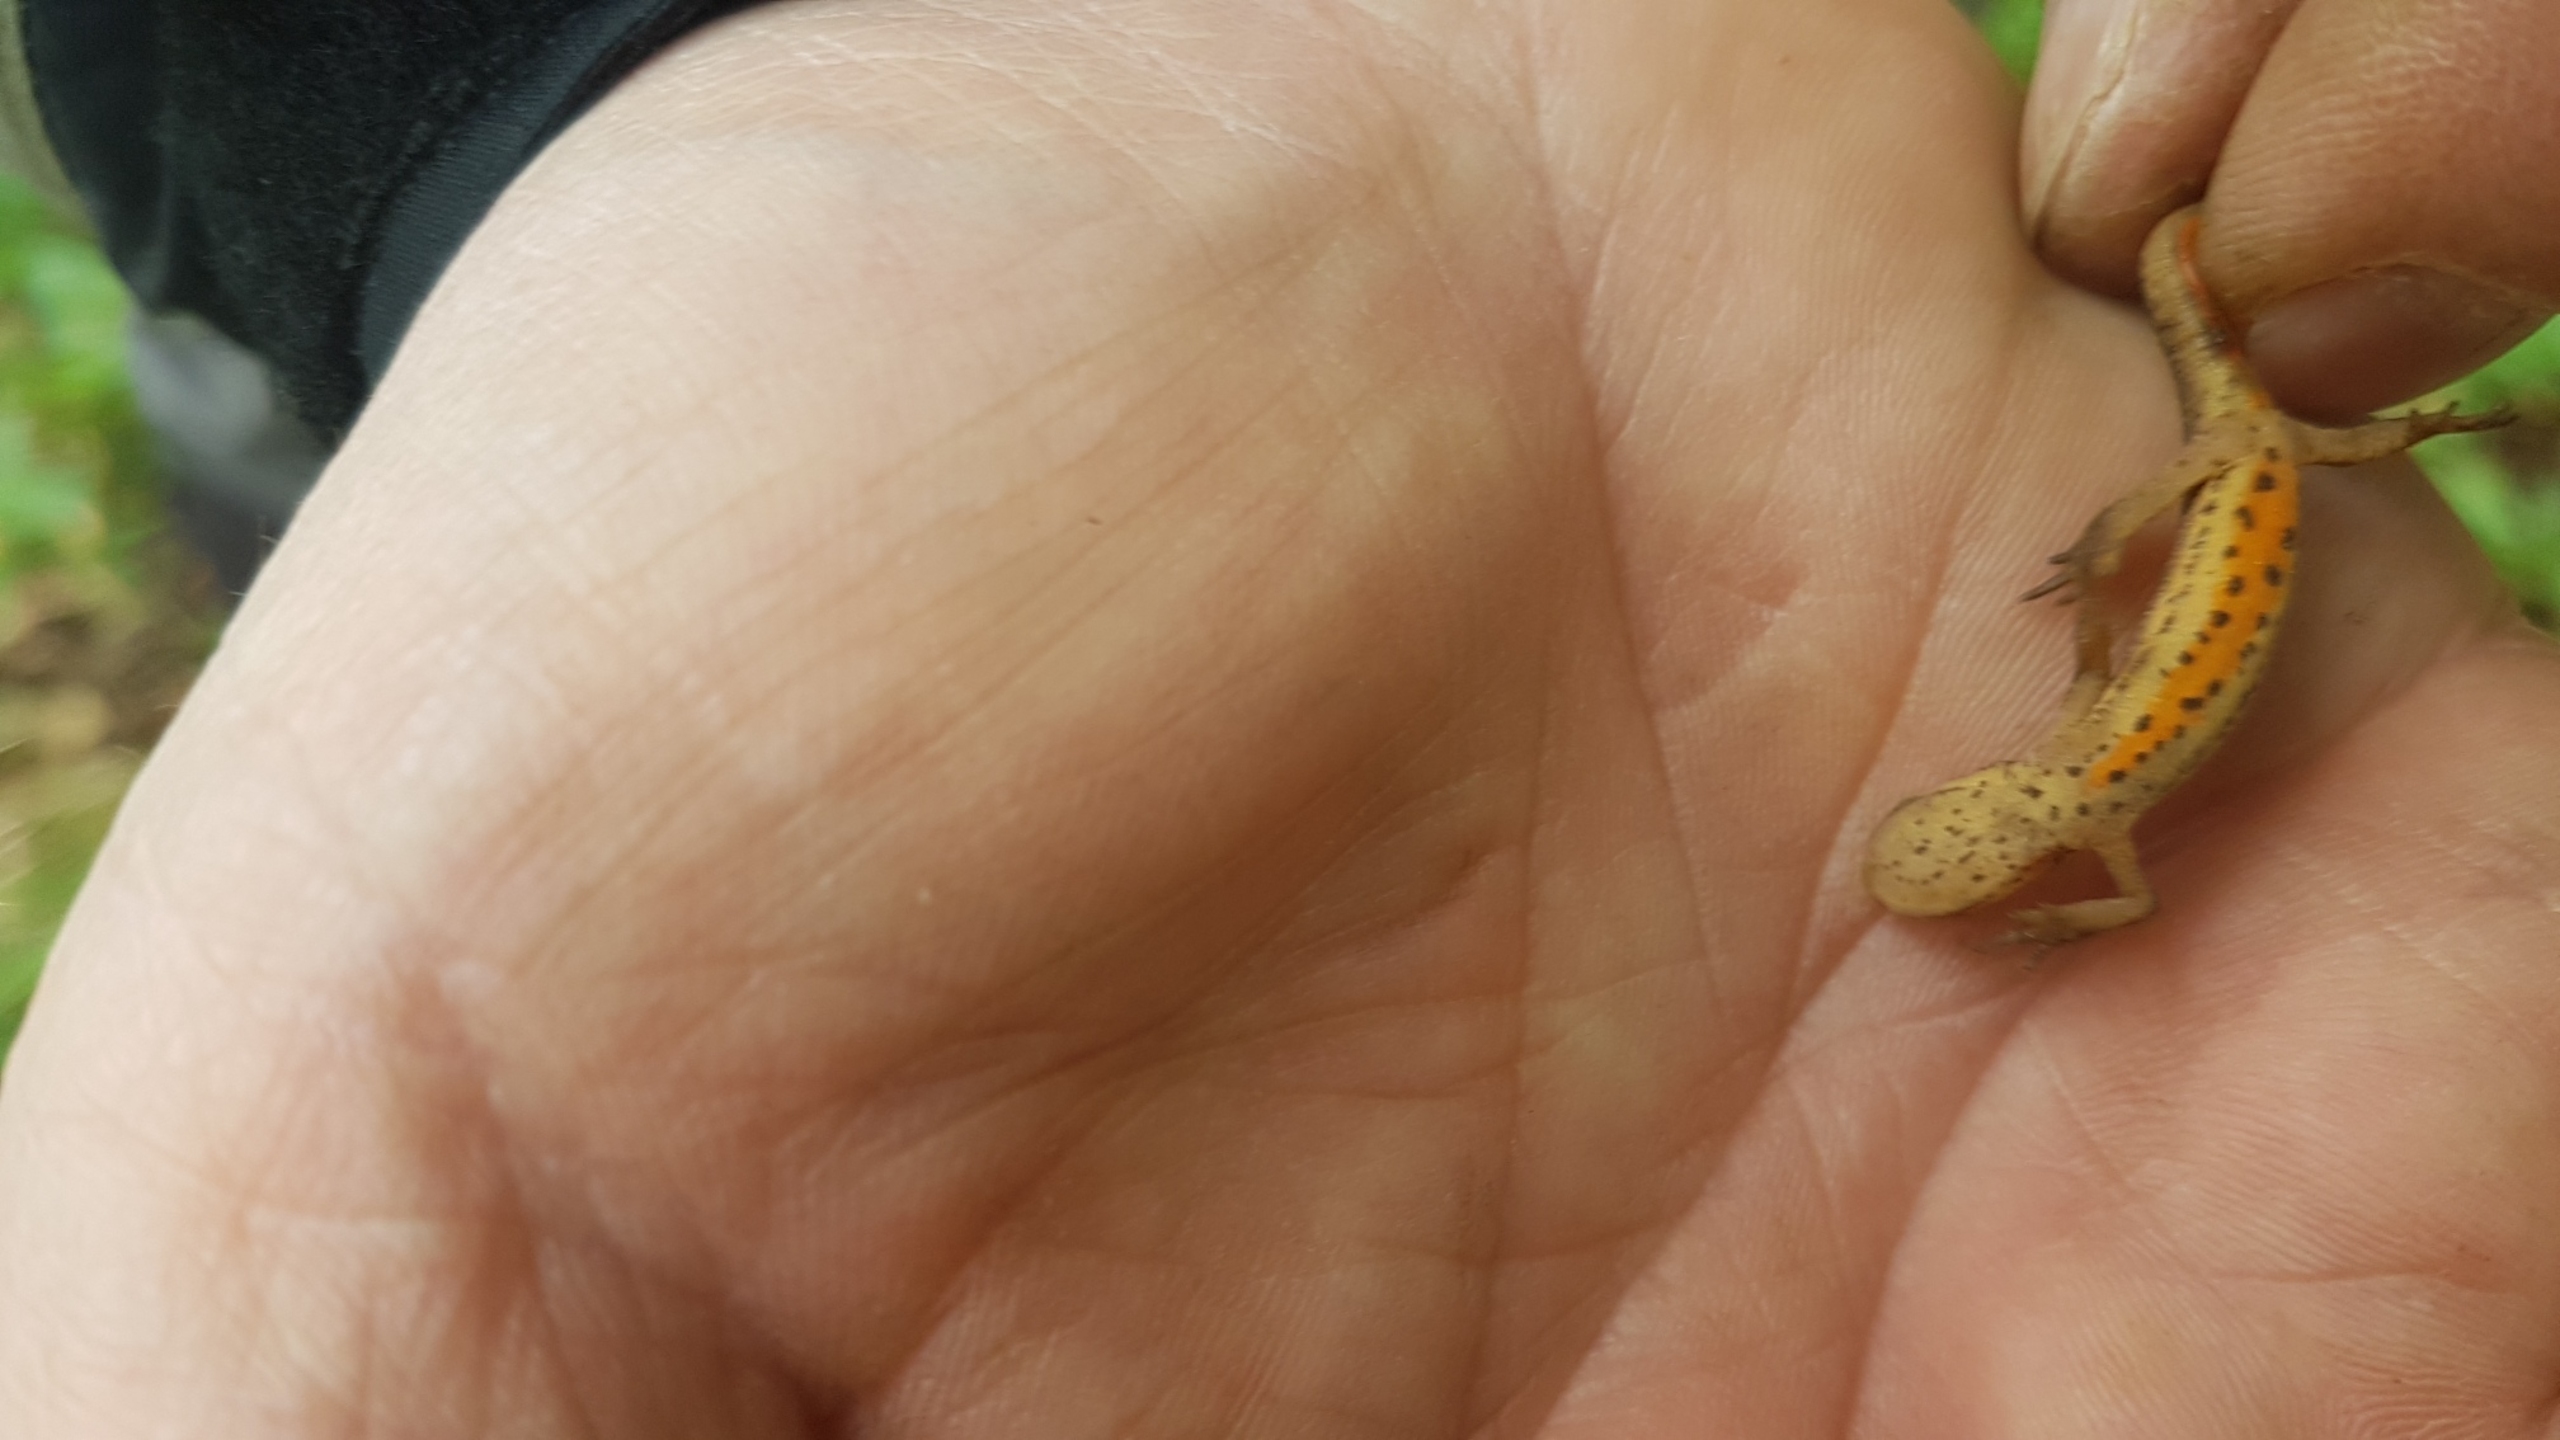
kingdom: Animalia
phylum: Chordata
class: Amphibia
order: Caudata
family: Salamandridae
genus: Lissotriton
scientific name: Lissotriton vulgaris
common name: Lille vandsalamander
